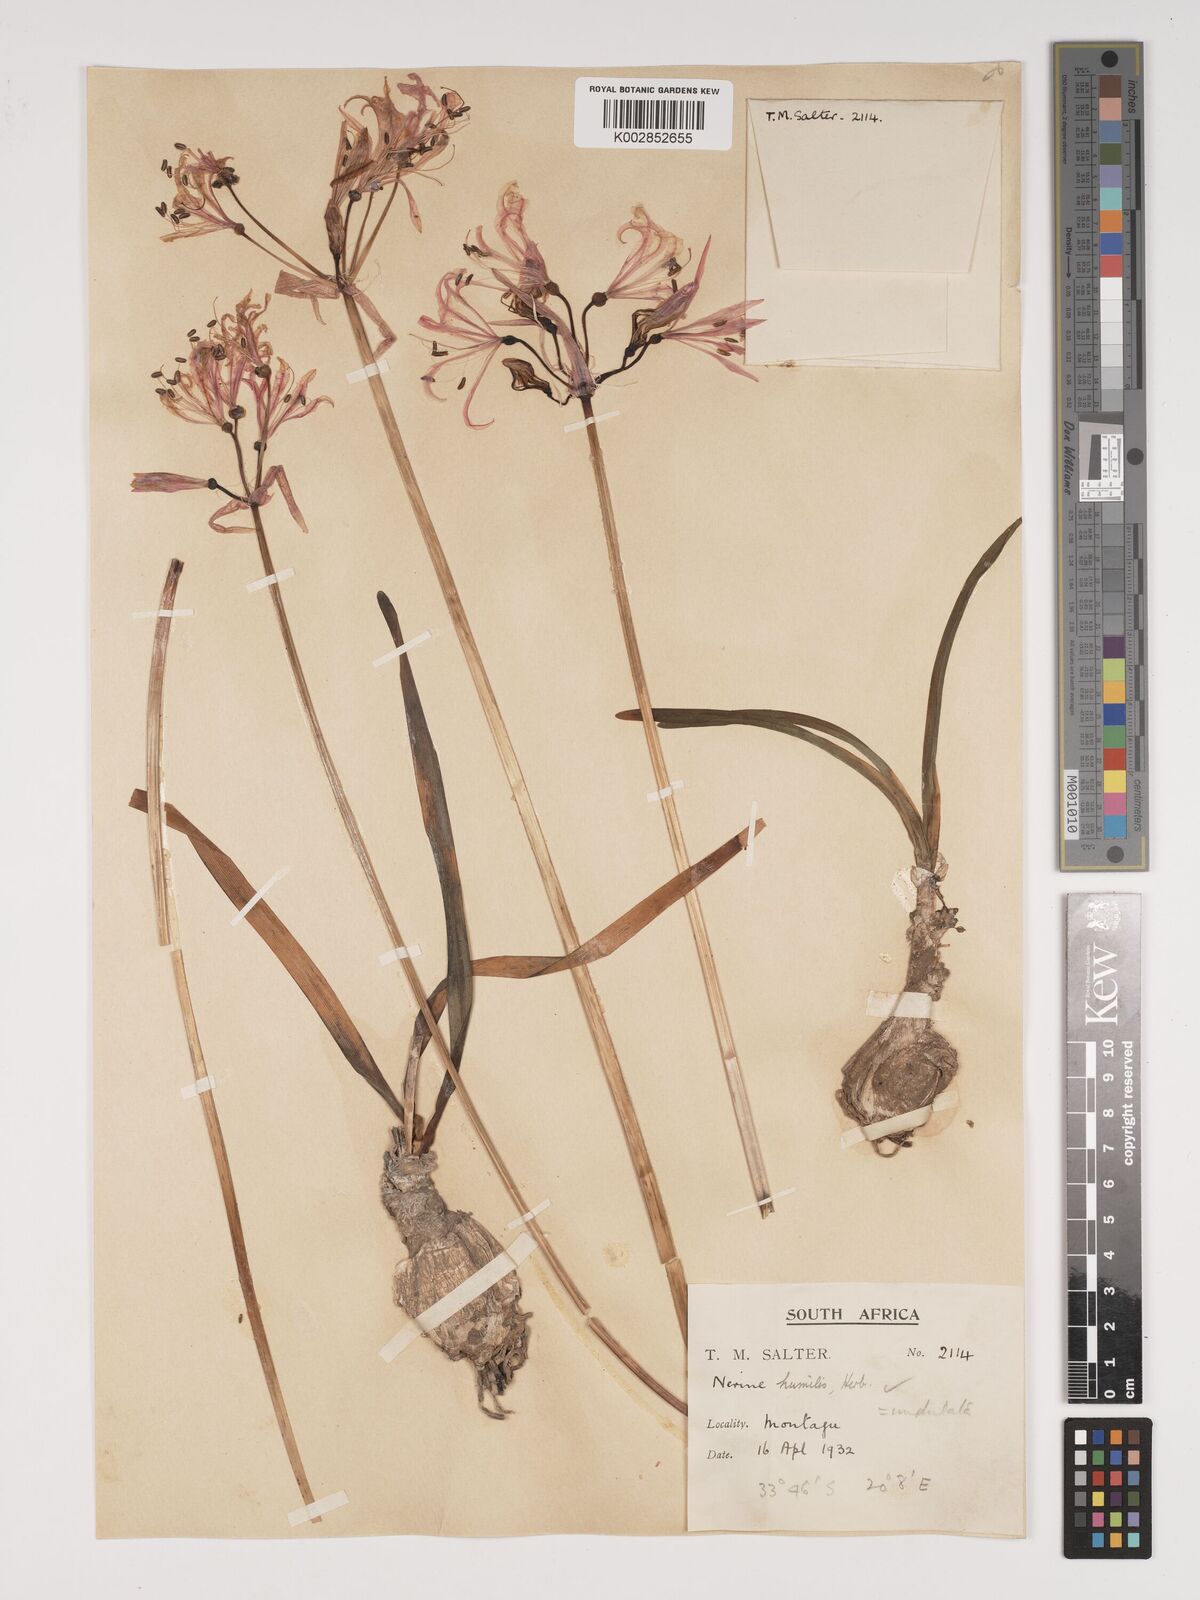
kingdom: Plantae
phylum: Tracheophyta
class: Liliopsida
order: Asparagales
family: Amaryllidaceae
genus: Nerine
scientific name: Nerine humilis
